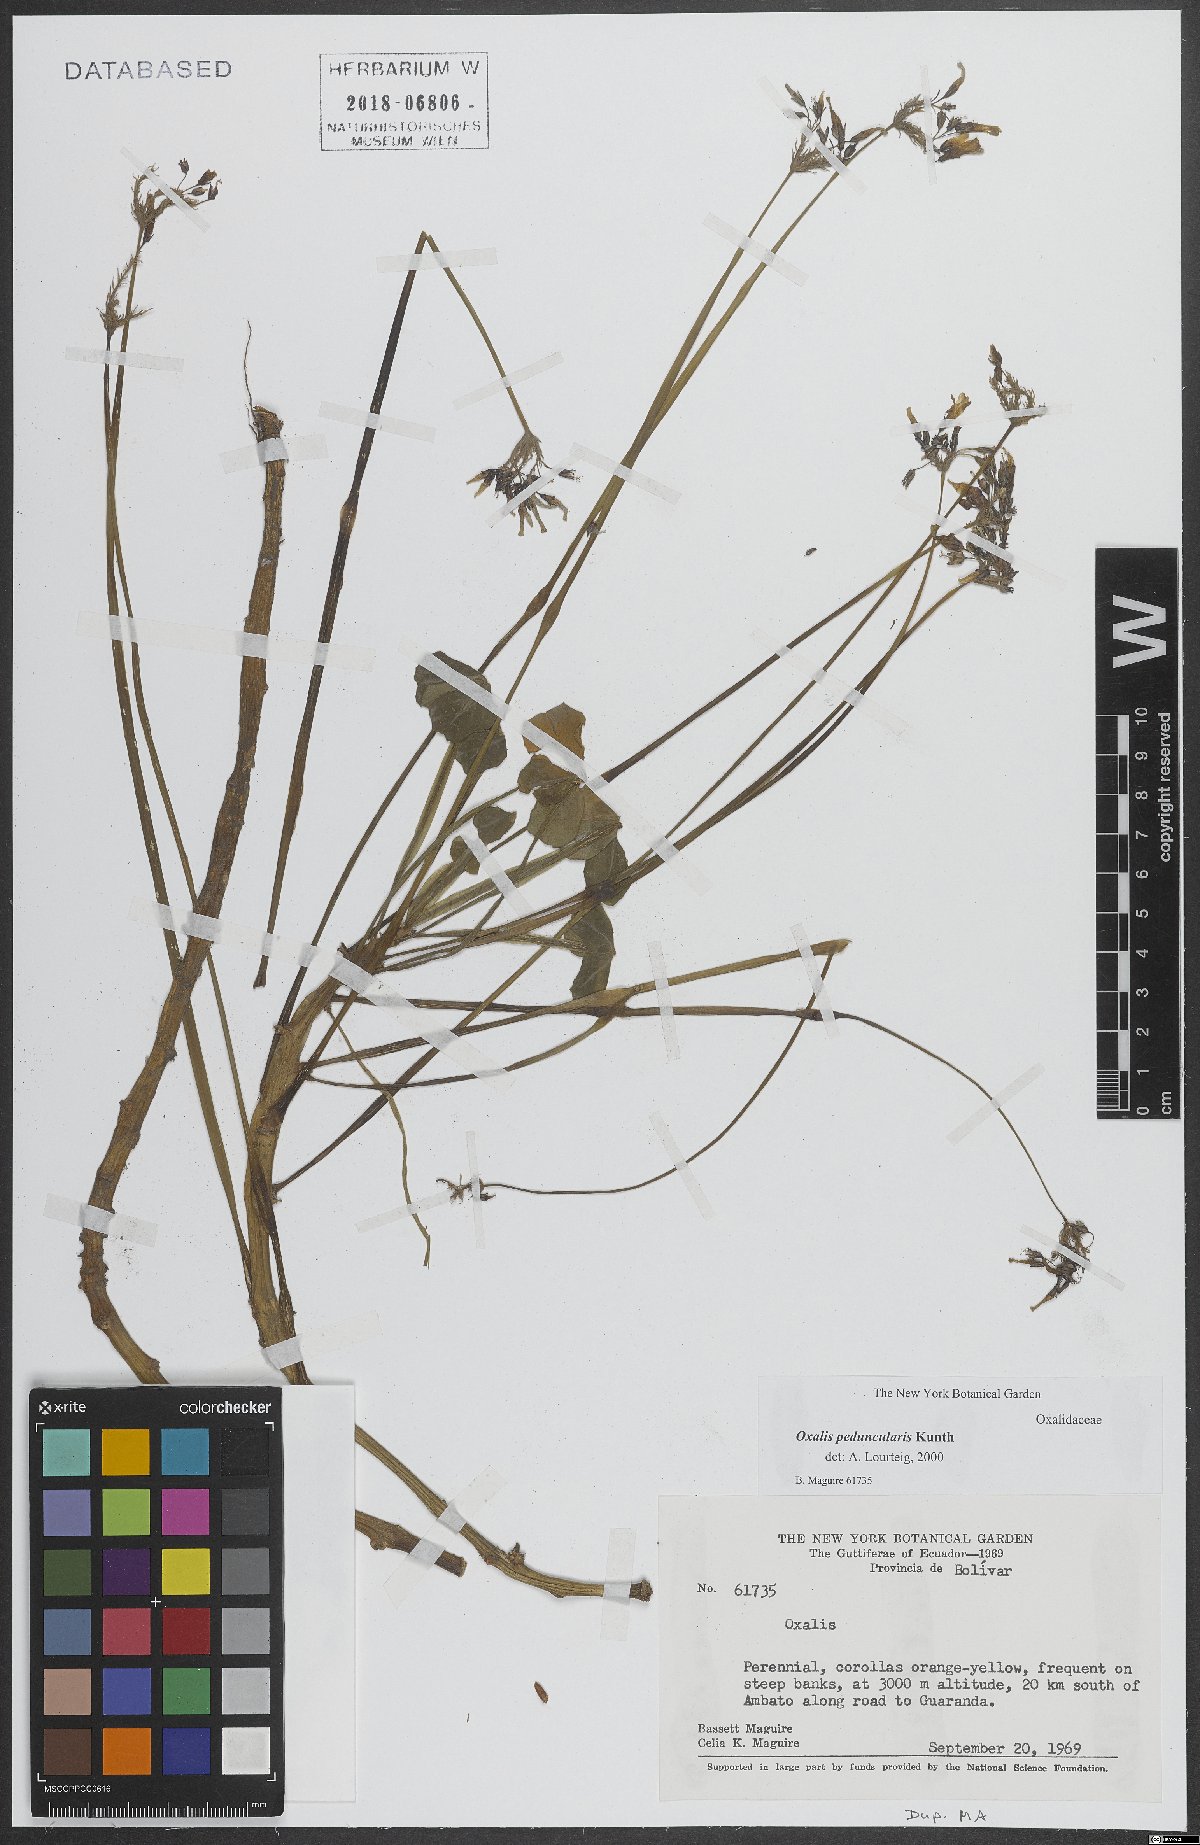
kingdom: Plantae
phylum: Tracheophyta
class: Magnoliopsida
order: Oxalidales
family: Oxalidaceae
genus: Oxalis
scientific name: Oxalis peduncularis
